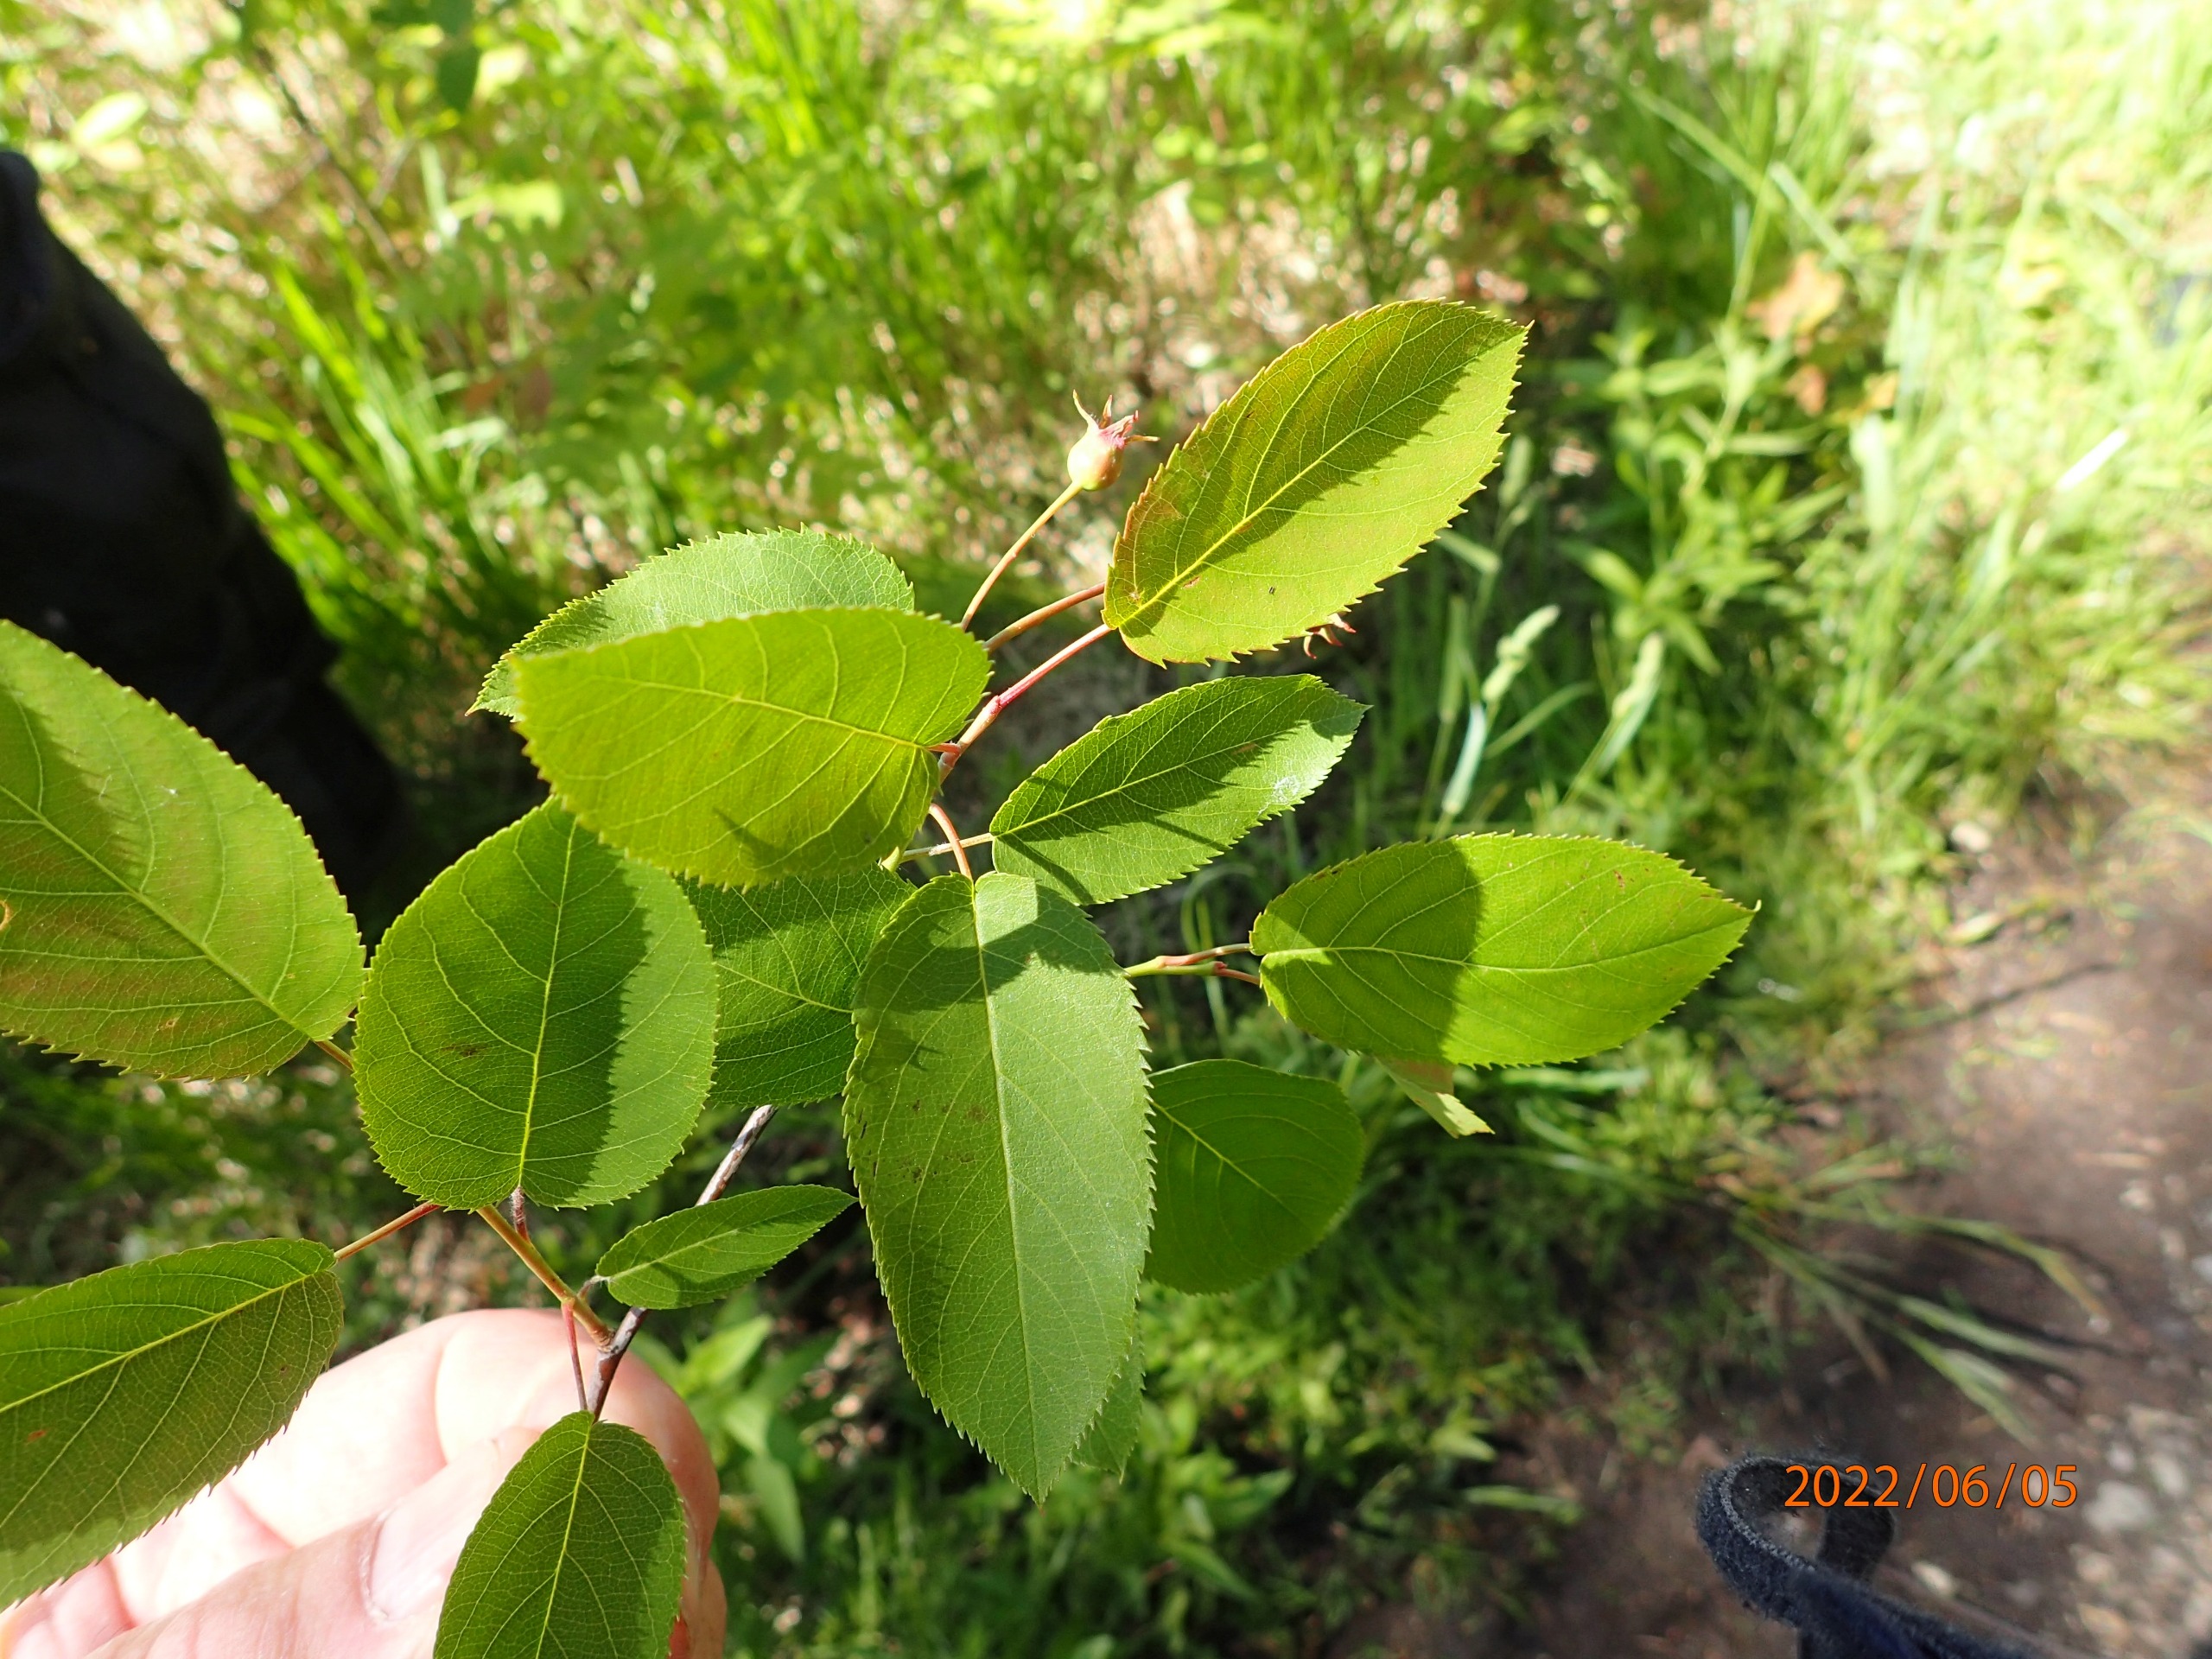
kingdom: Plantae
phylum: Tracheophyta
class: Magnoliopsida
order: Rosales
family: Rosaceae
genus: Aronia
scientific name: Aronia melanocarpa
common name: Sortfrugtet surbær
